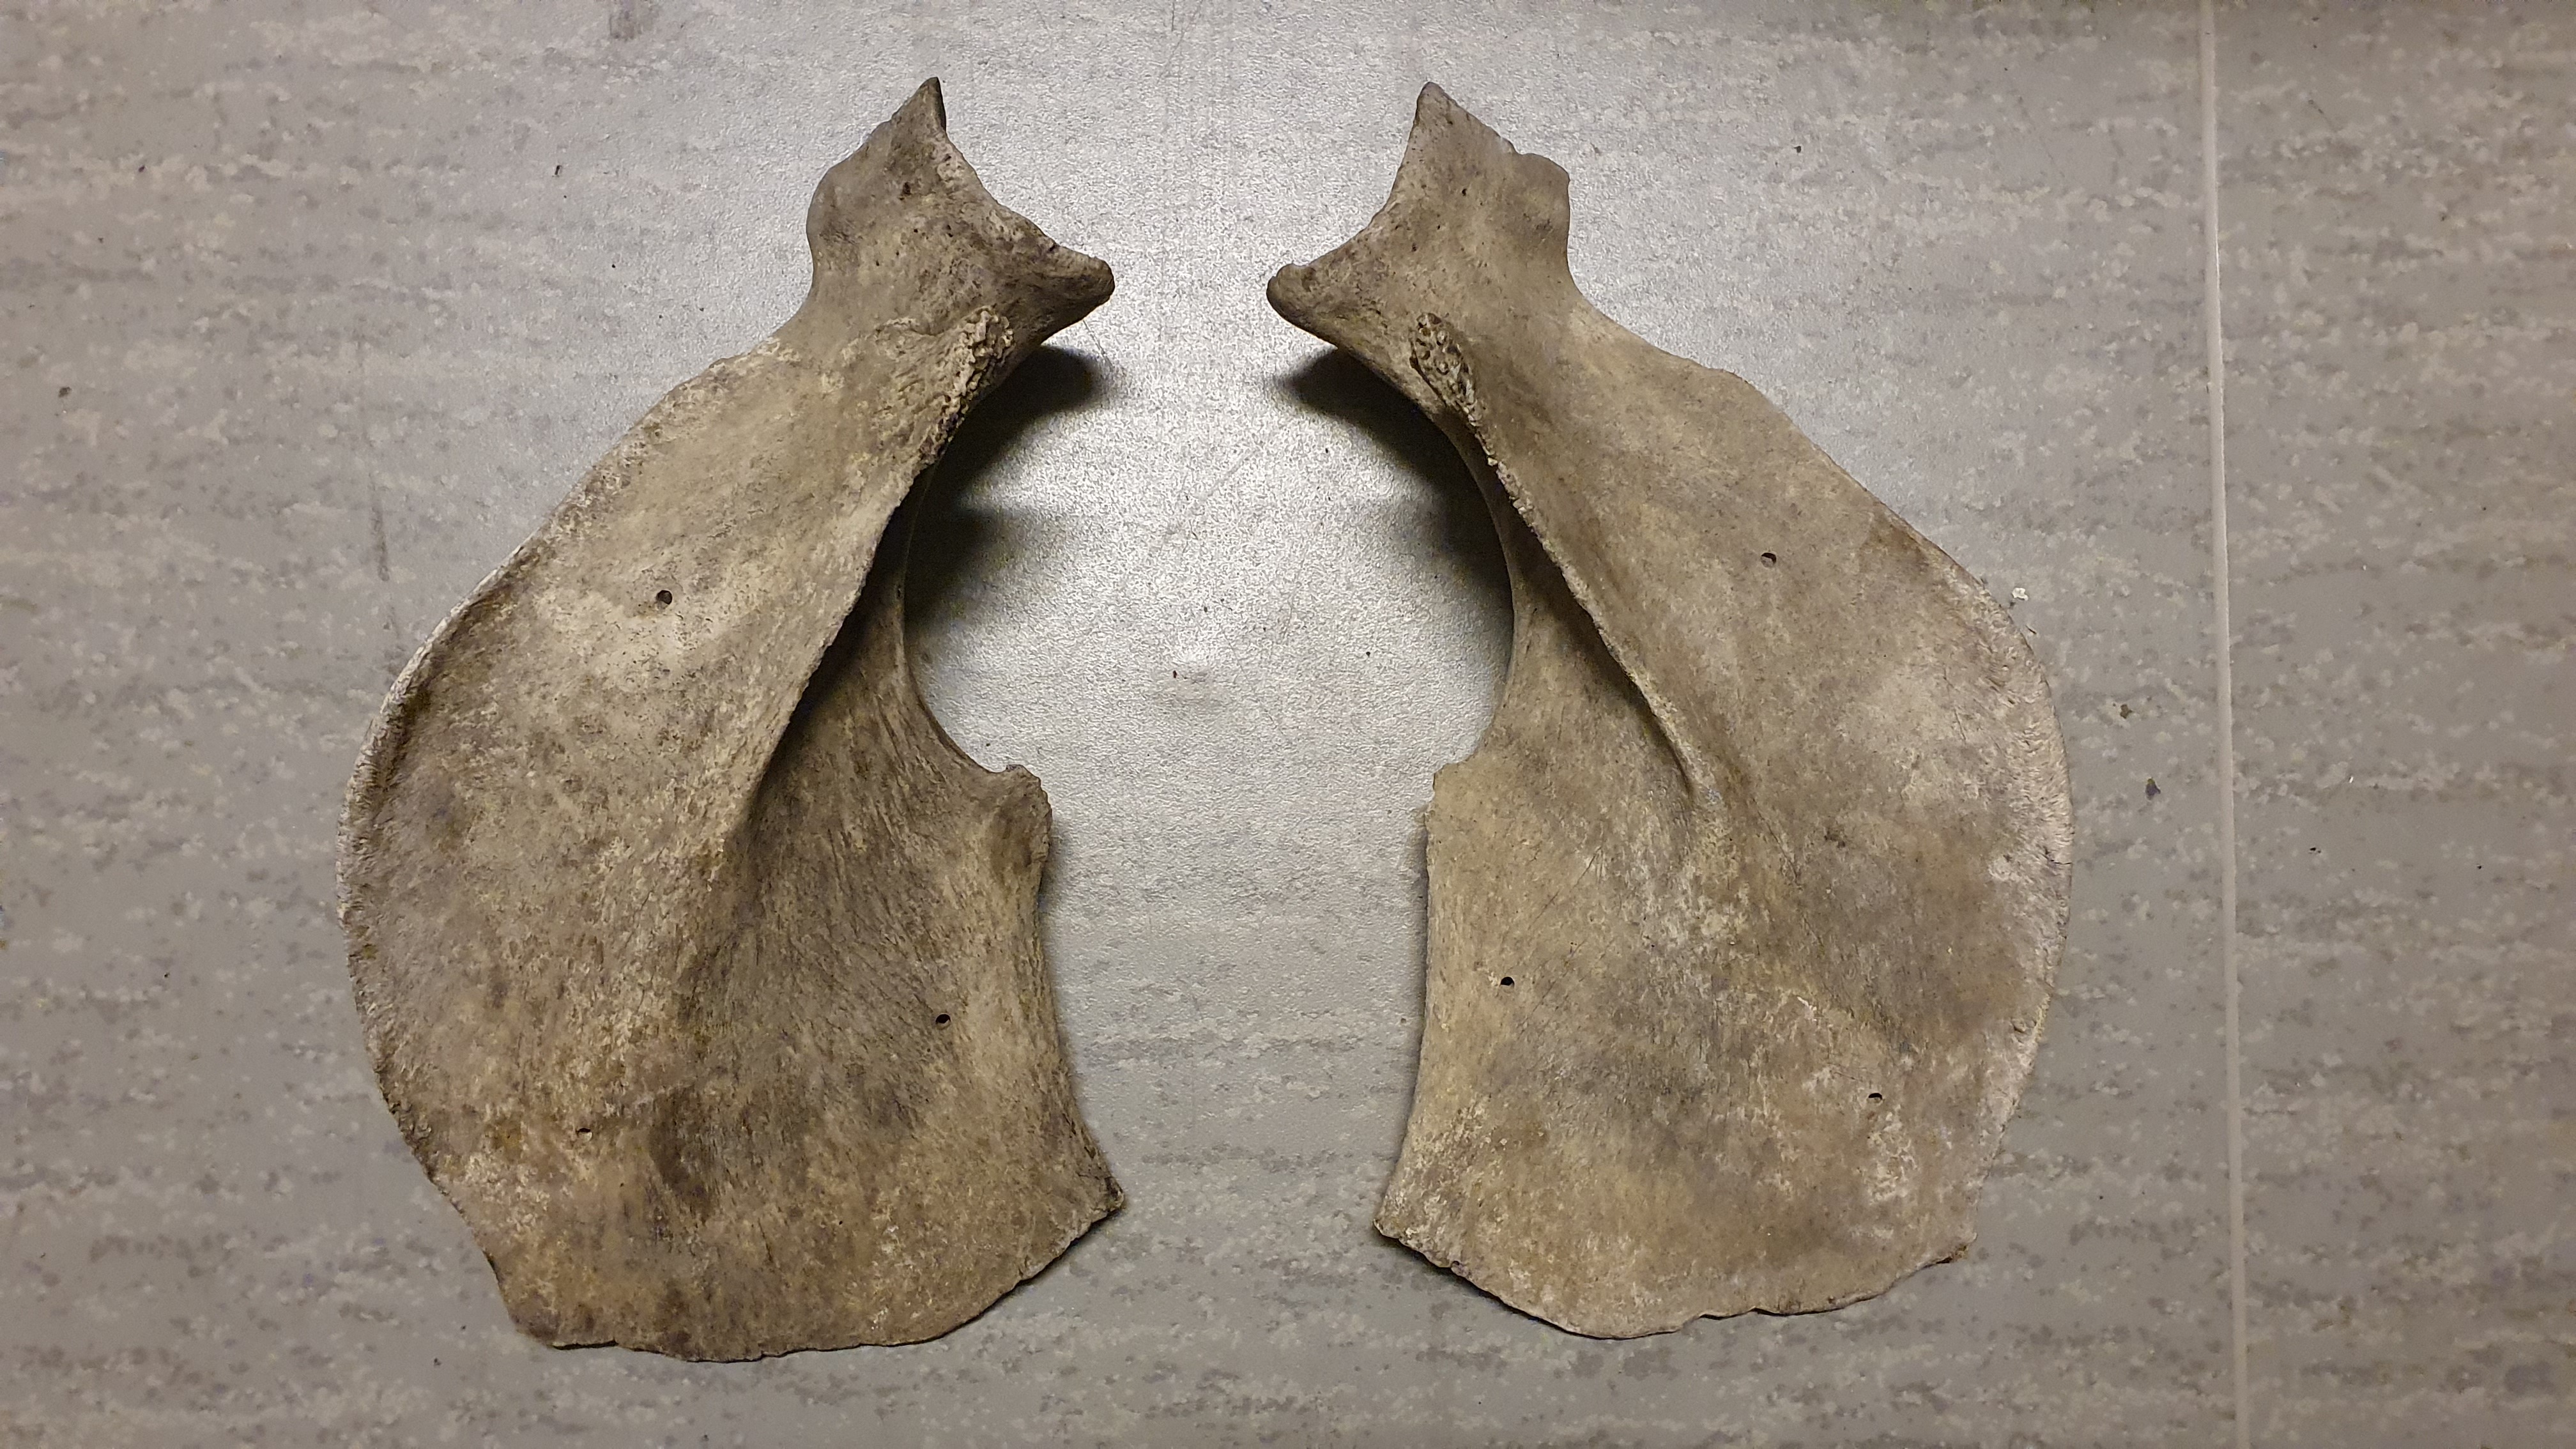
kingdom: Animalia
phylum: Chordata
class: Mammalia
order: Cetacea
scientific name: Cetacea
